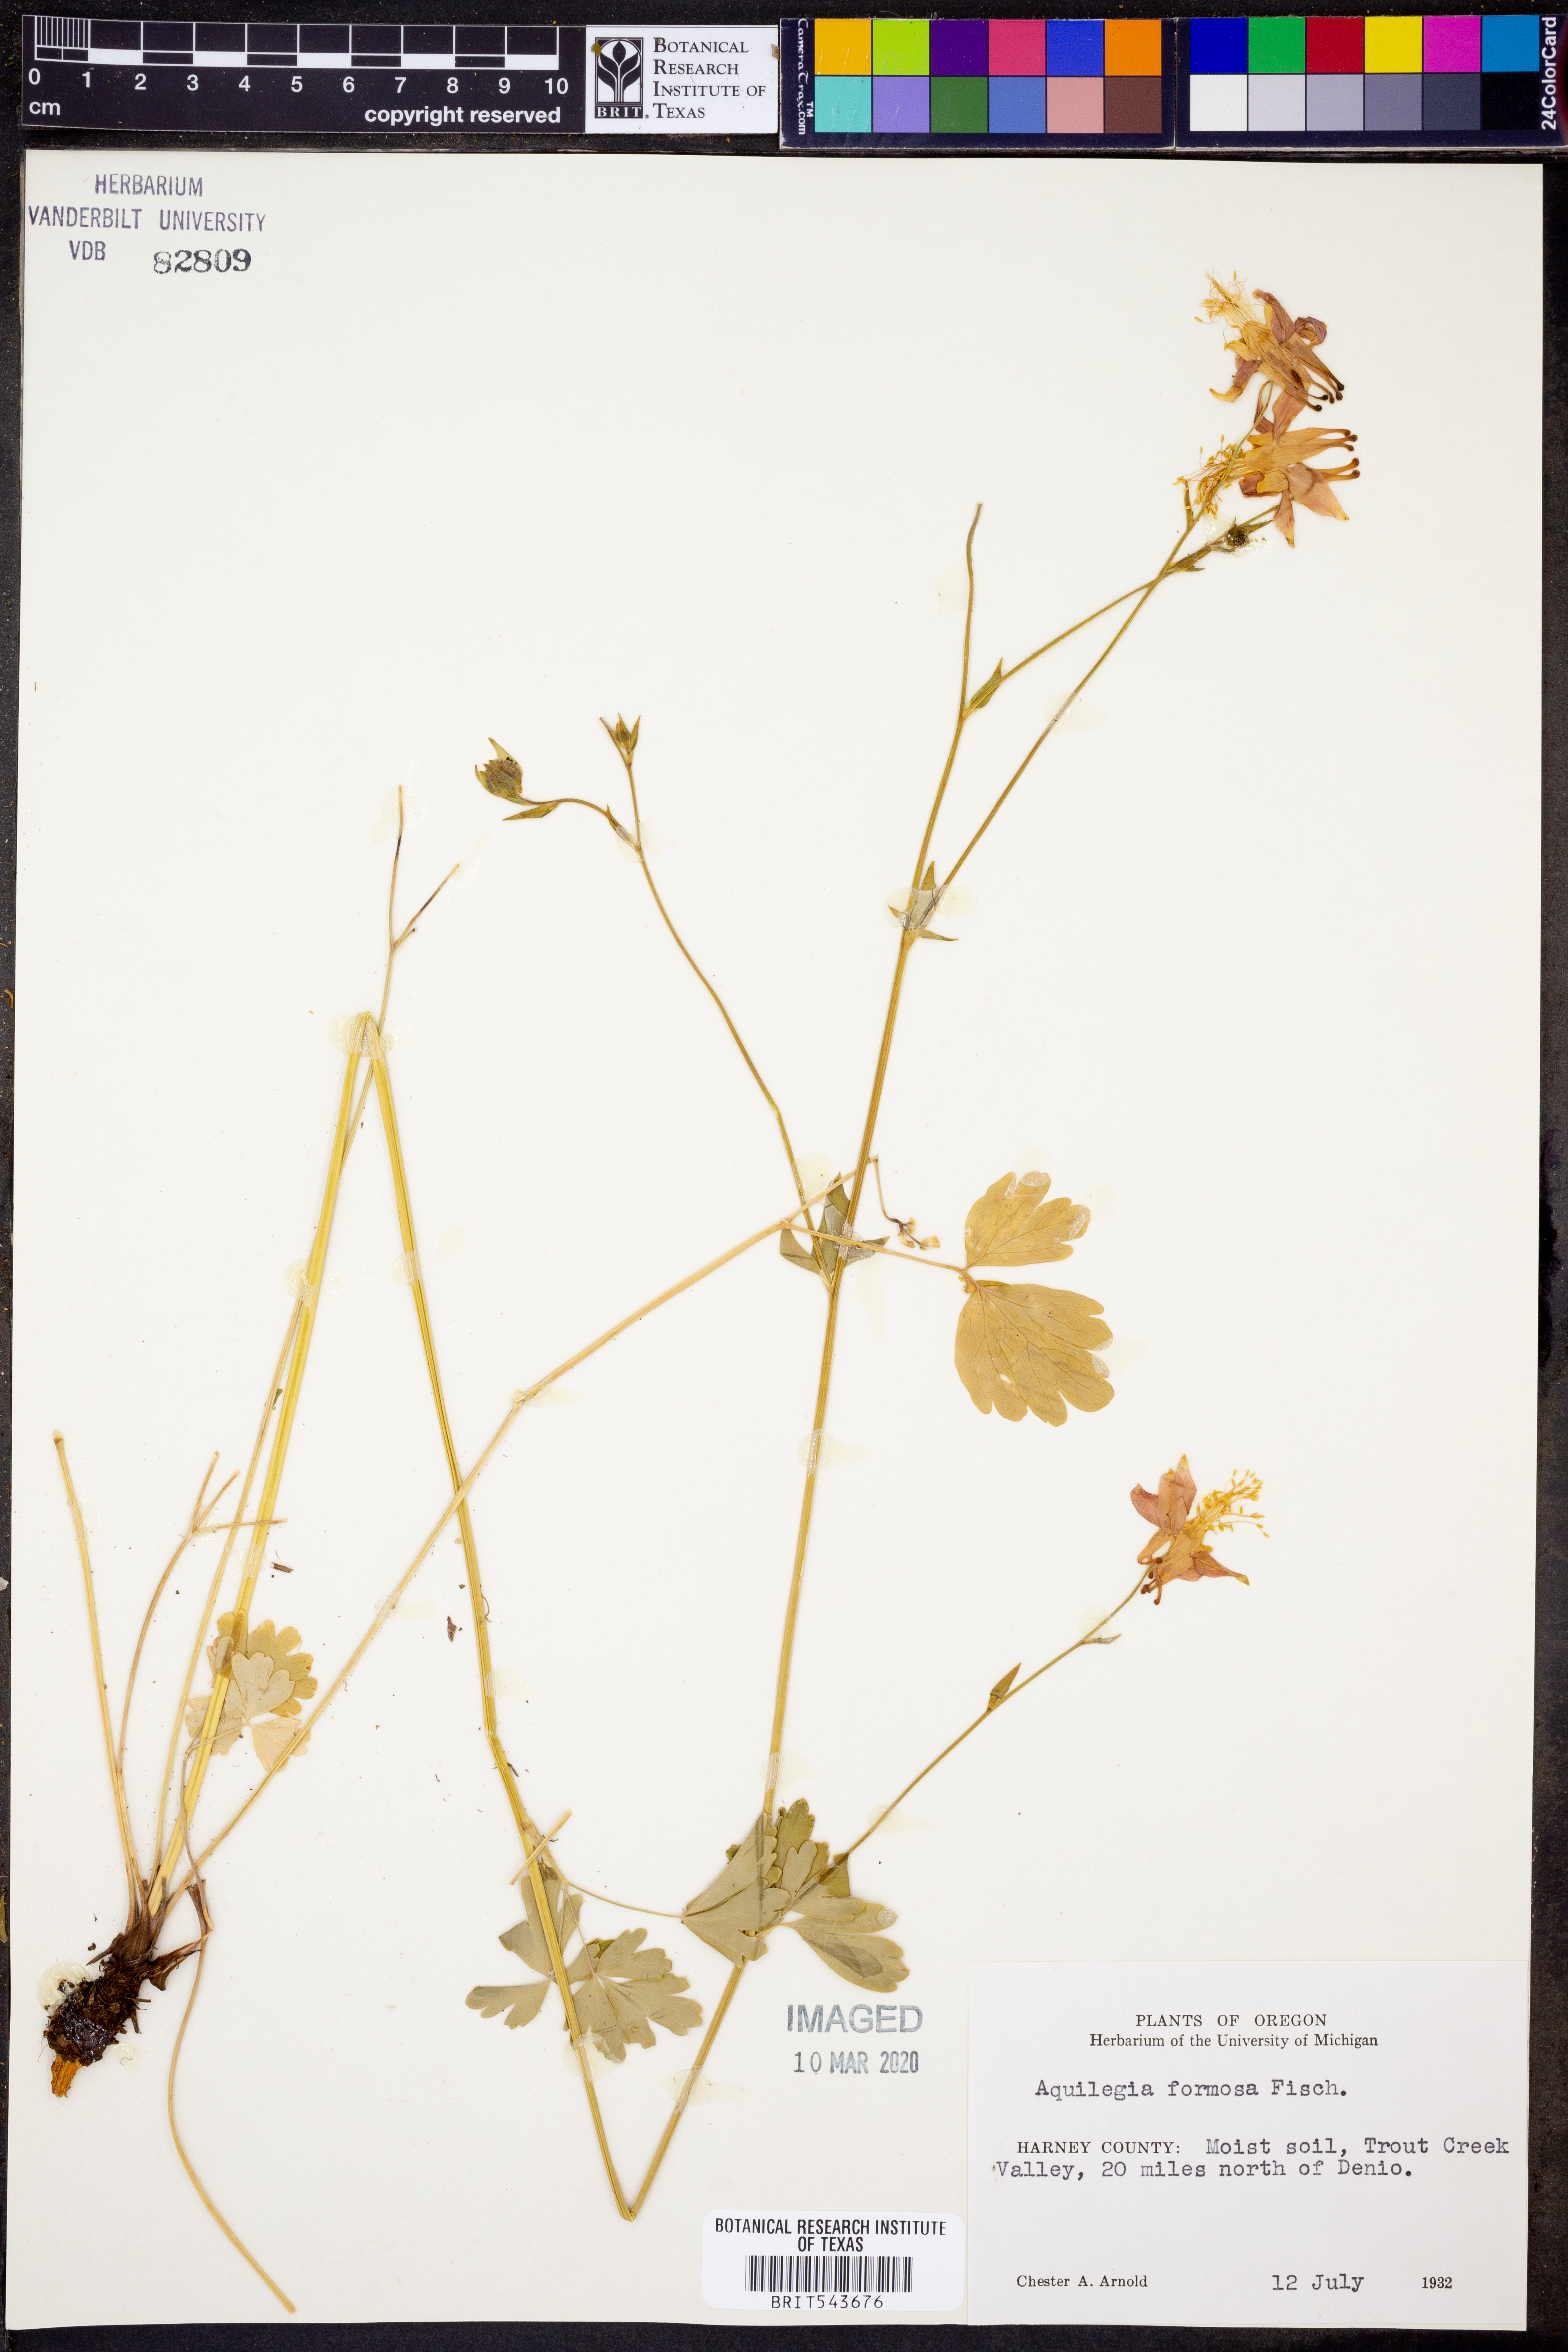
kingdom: Plantae
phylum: Tracheophyta
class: Magnoliopsida
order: Ranunculales
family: Ranunculaceae
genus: Aquilegia
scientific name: Aquilegia formosa
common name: Sitka columbine
